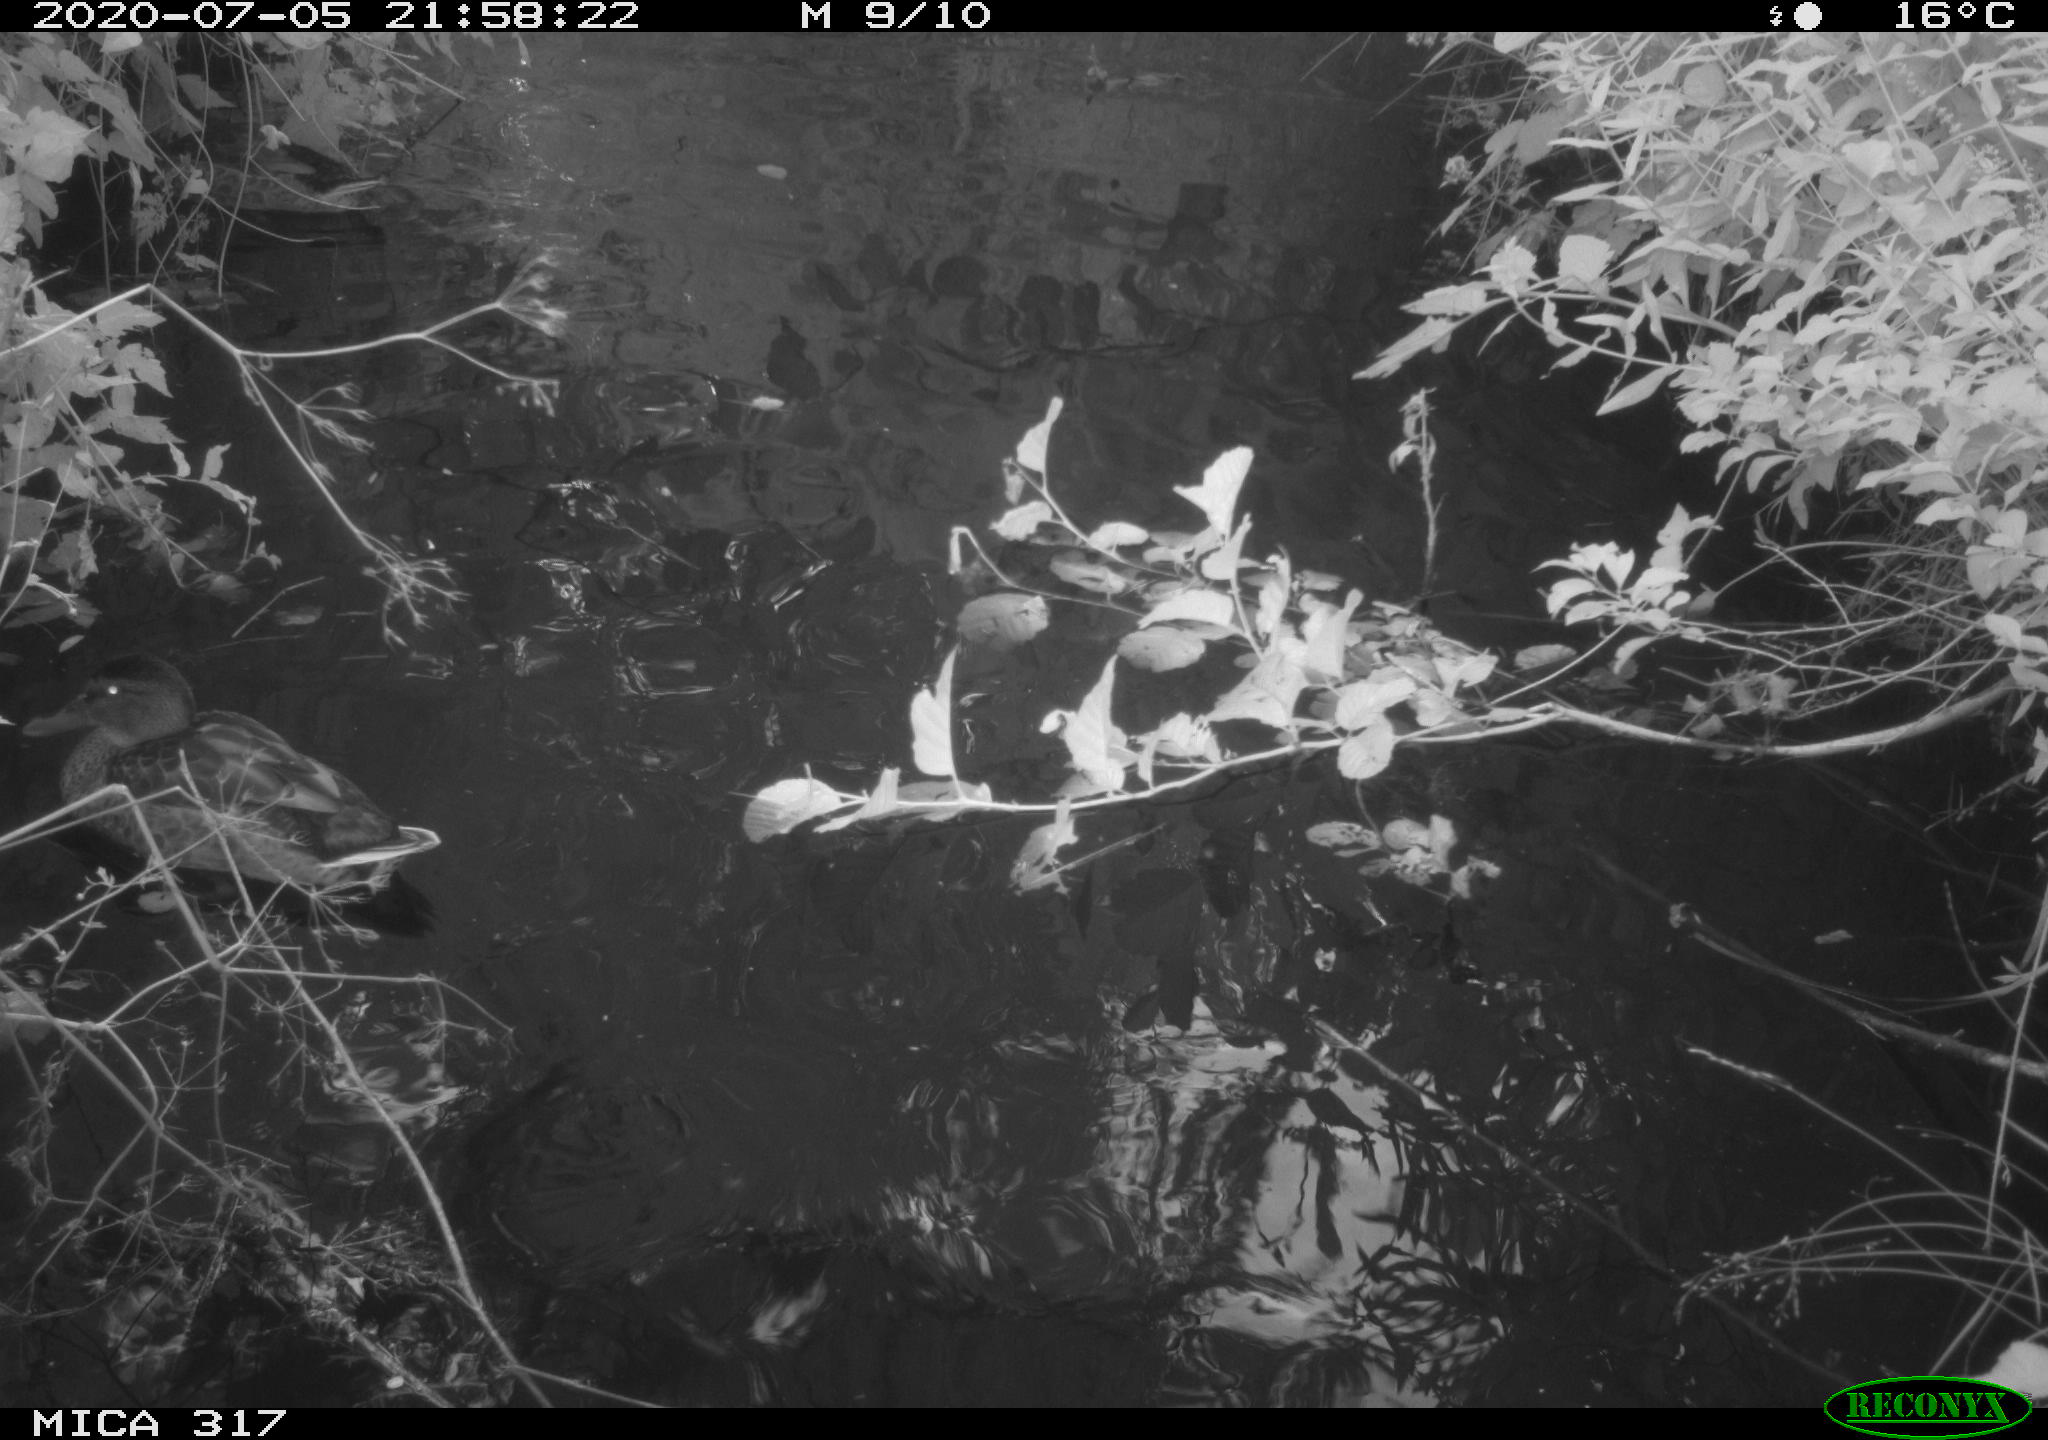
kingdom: Animalia
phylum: Chordata
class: Aves
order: Anseriformes
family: Anatidae
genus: Anas
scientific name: Anas platyrhynchos
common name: Mallard
